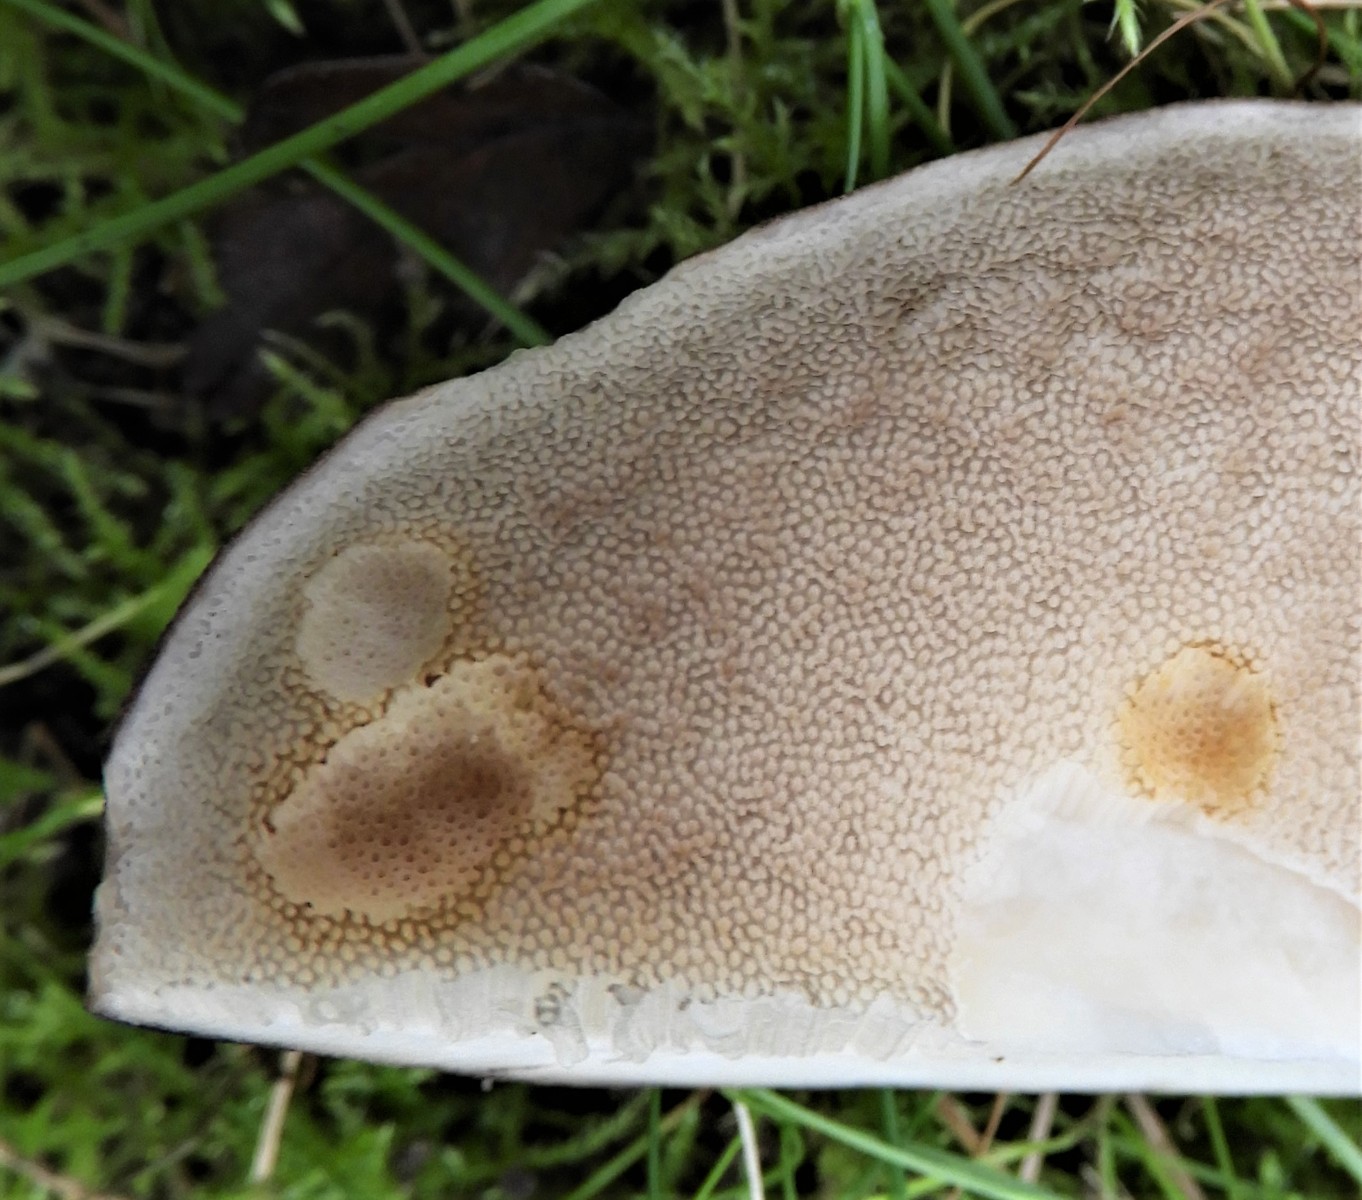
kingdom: Fungi
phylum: Basidiomycota
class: Agaricomycetes
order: Boletales
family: Boletaceae
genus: Leccinum
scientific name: Leccinum scabrum
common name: brun skælrørhat
